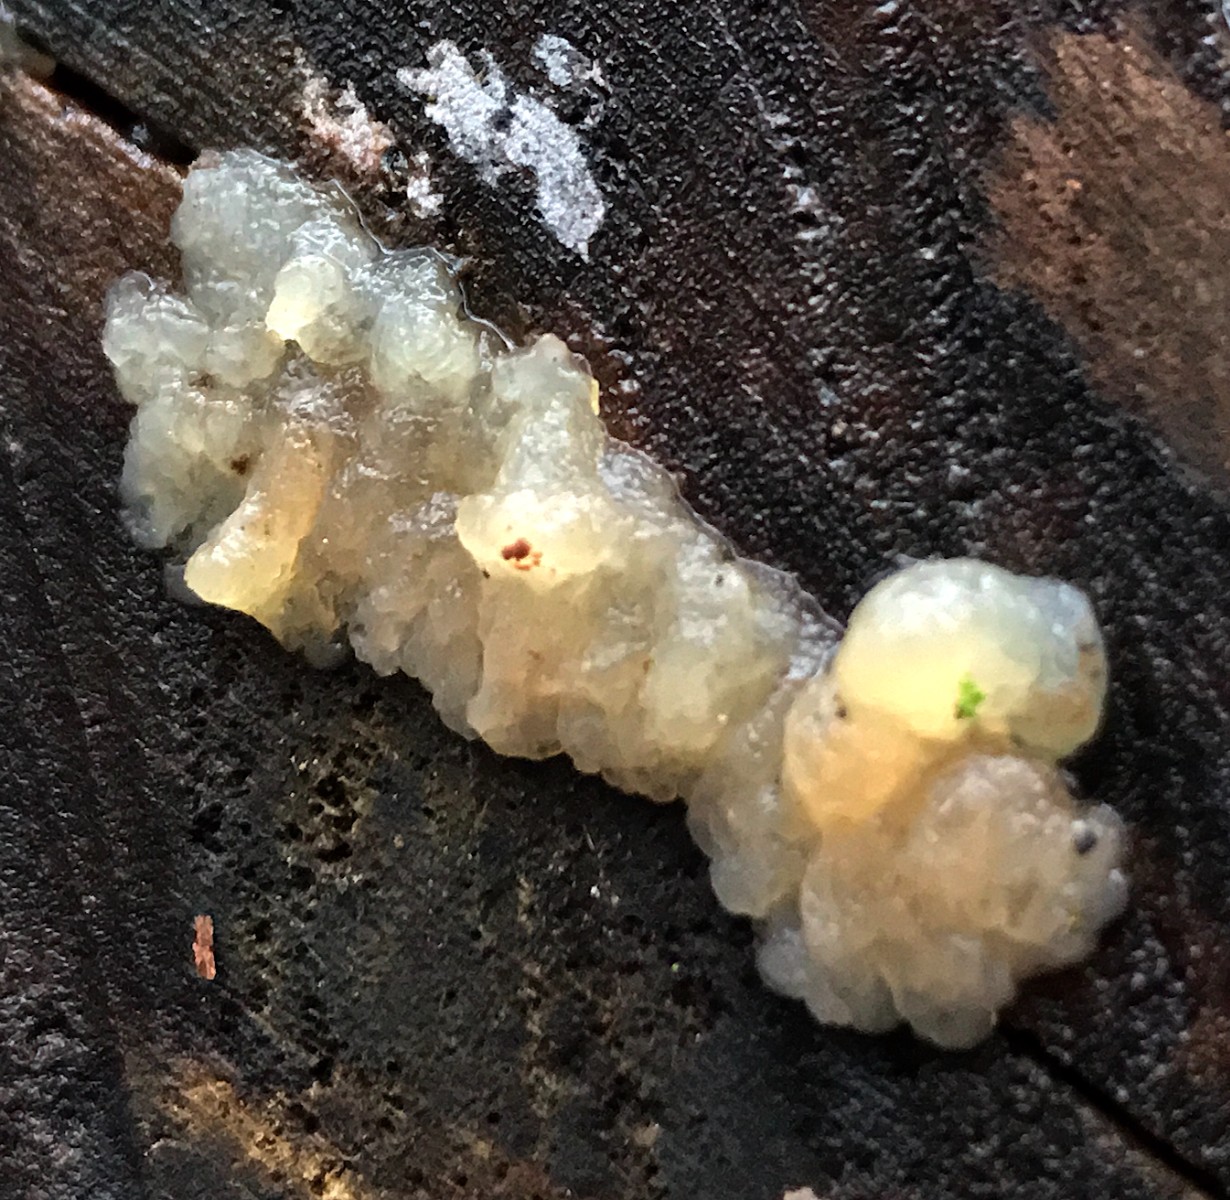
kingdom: Fungi
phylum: Basidiomycota
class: Agaricomycetes
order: Auriculariales
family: Hyaloriaceae
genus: Myxarium
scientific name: Myxarium nucleatum
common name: klar bævretop
